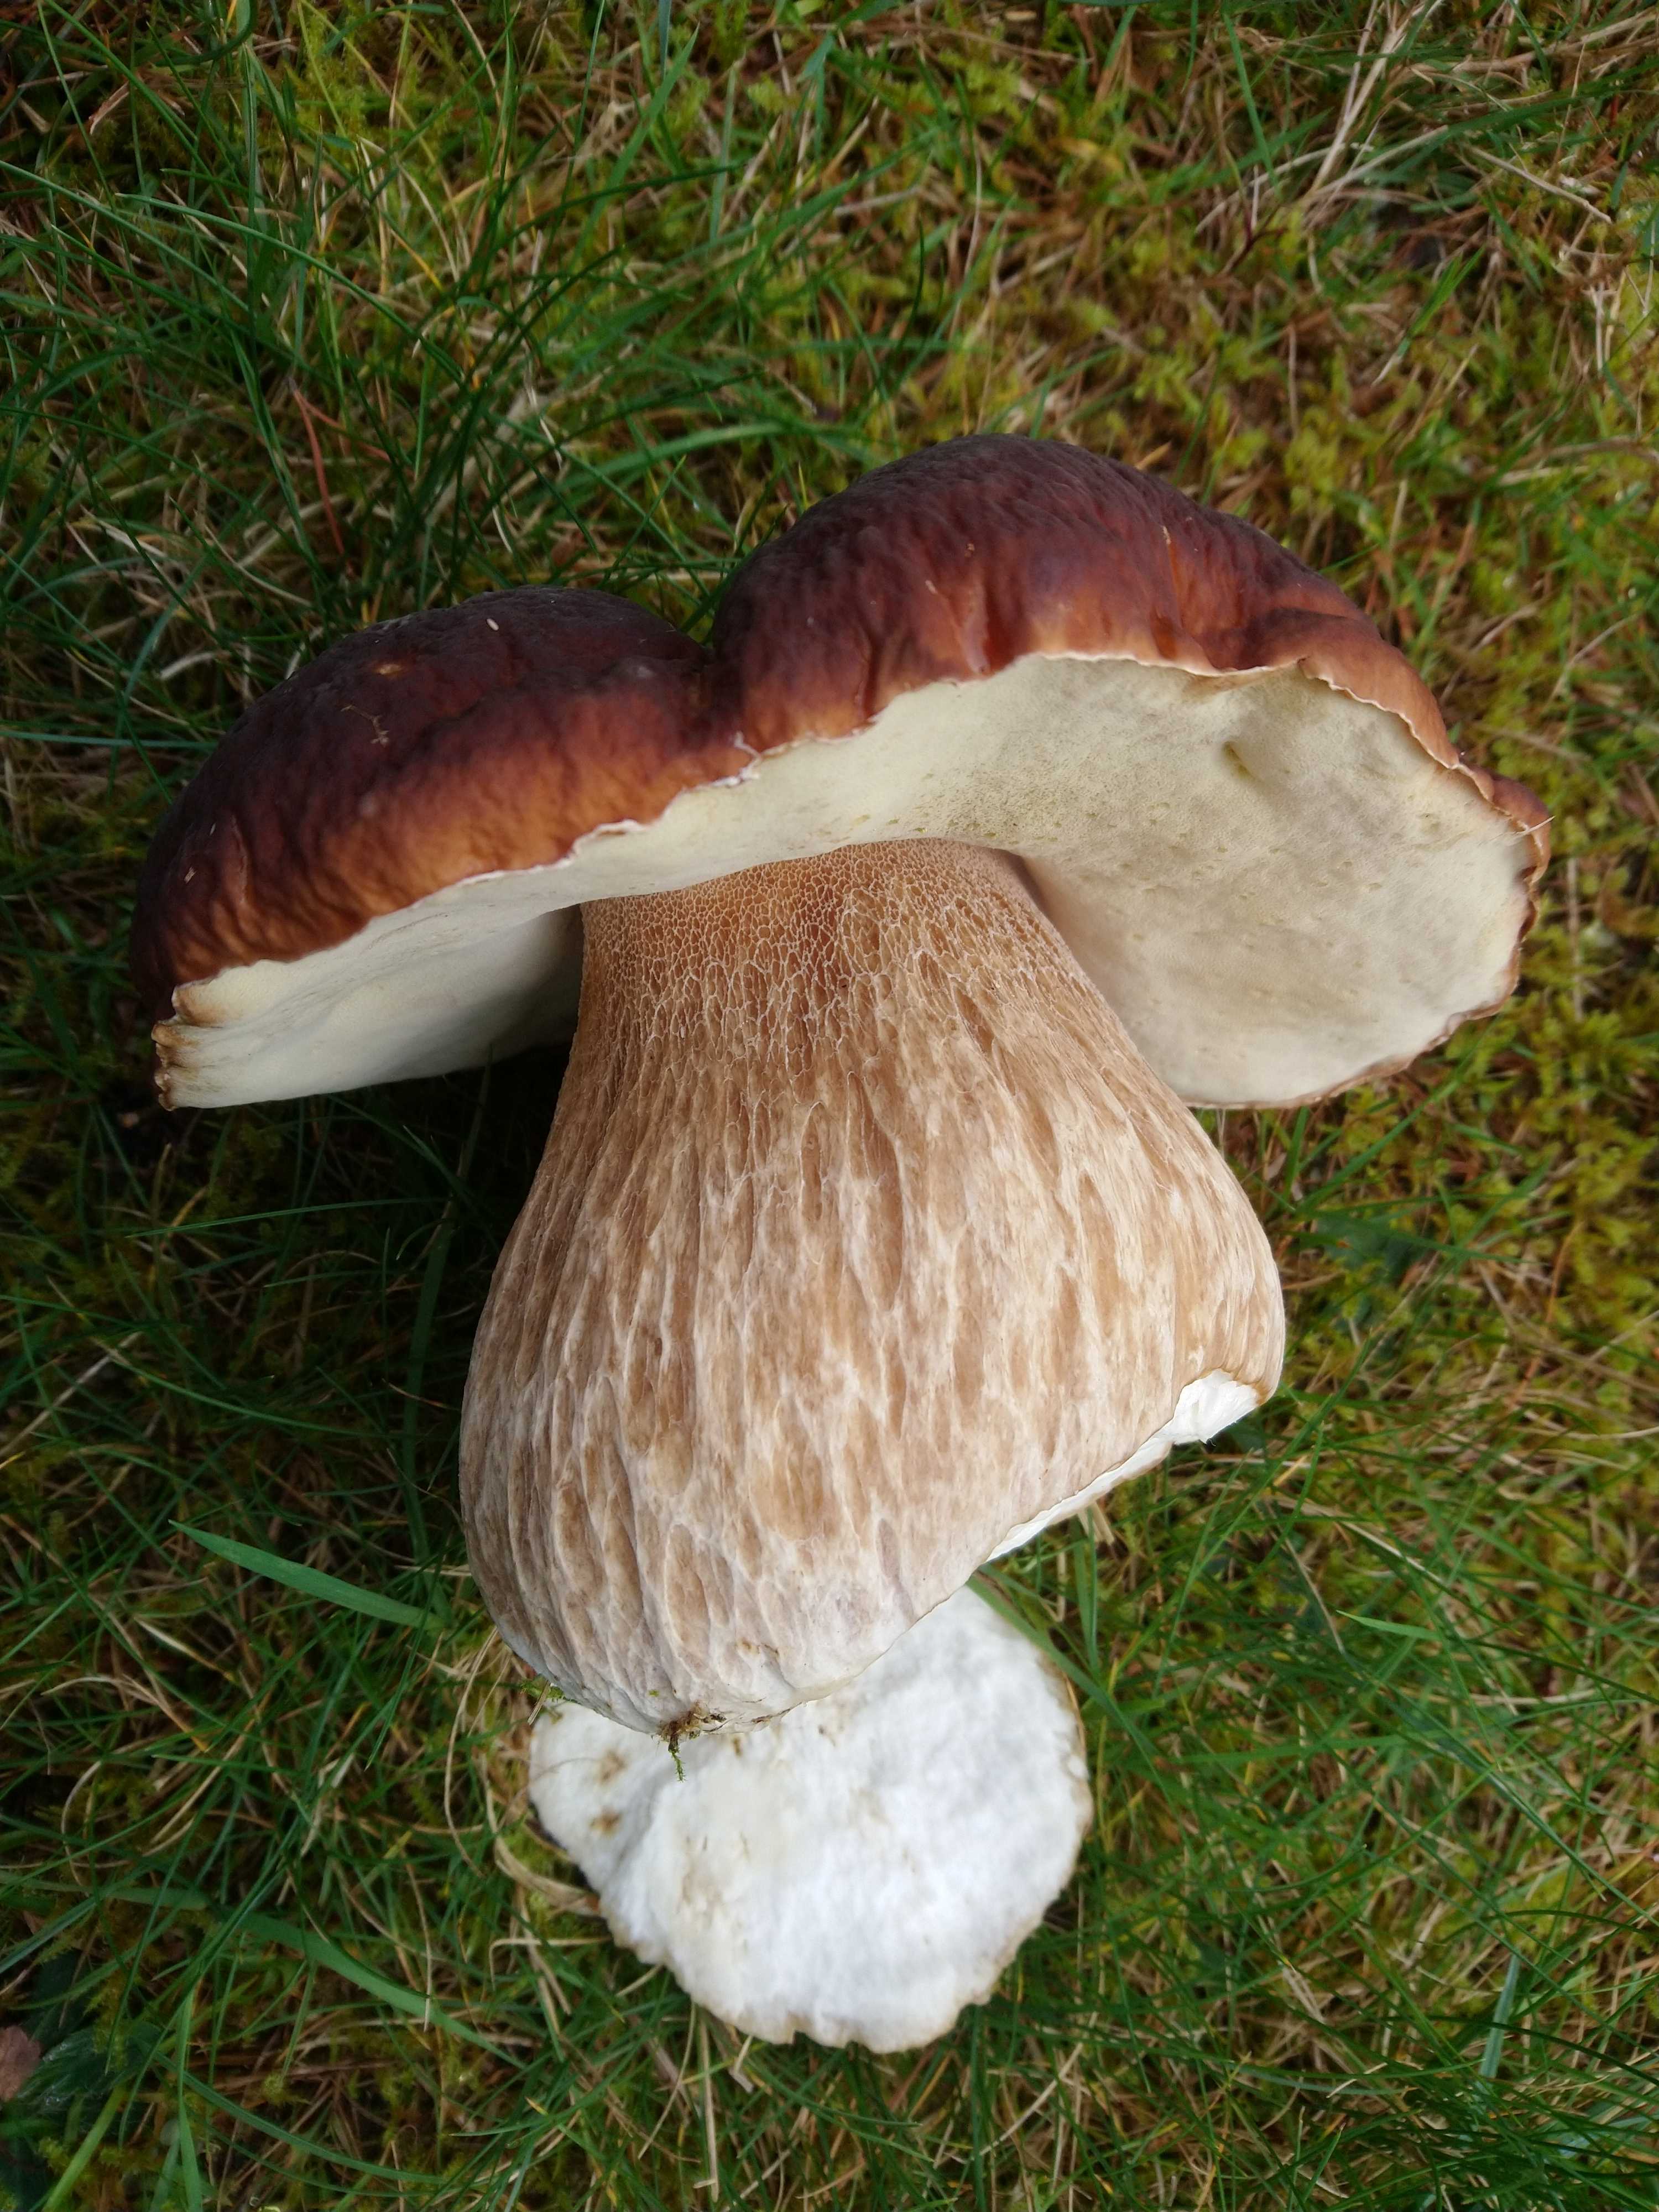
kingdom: Fungi
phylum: Basidiomycota
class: Agaricomycetes
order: Boletales
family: Boletaceae
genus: Boletus
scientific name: Boletus edulis
